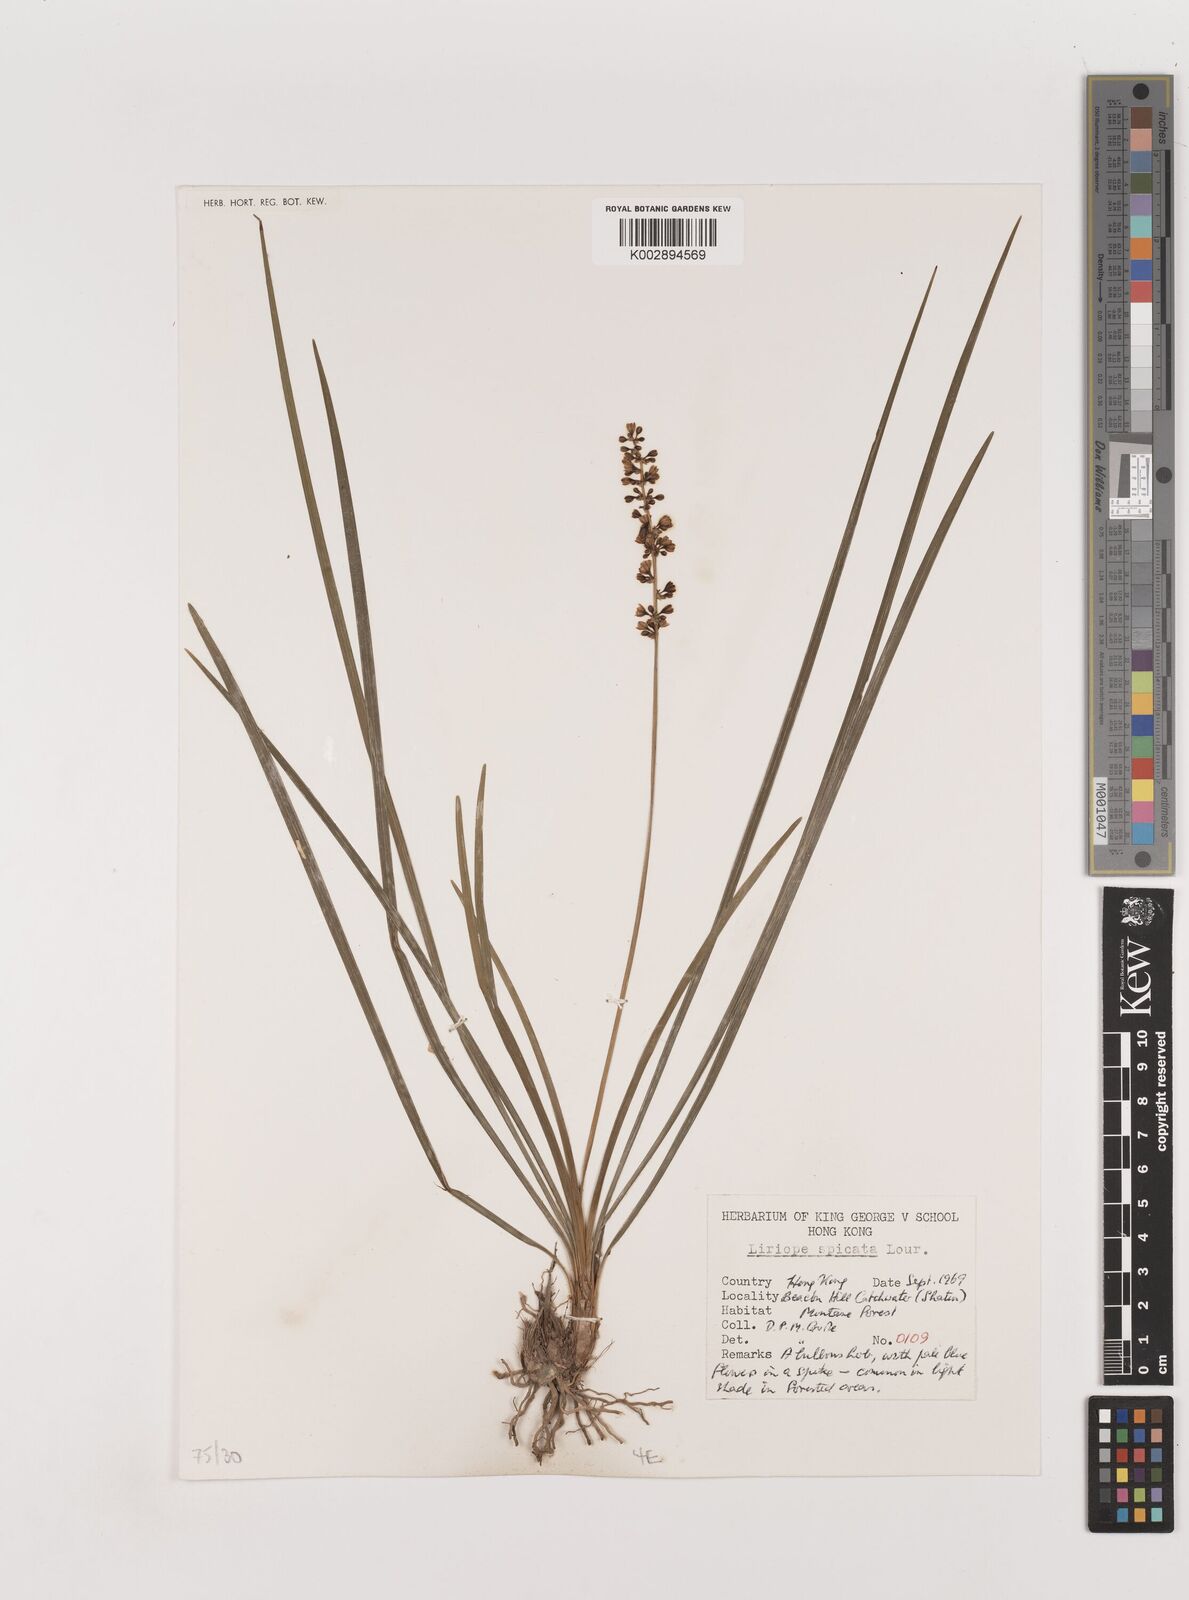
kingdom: Plantae
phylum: Tracheophyta
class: Liliopsida
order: Asparagales
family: Asparagaceae
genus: Liriope
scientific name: Liriope spicata
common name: Creeping liriope
